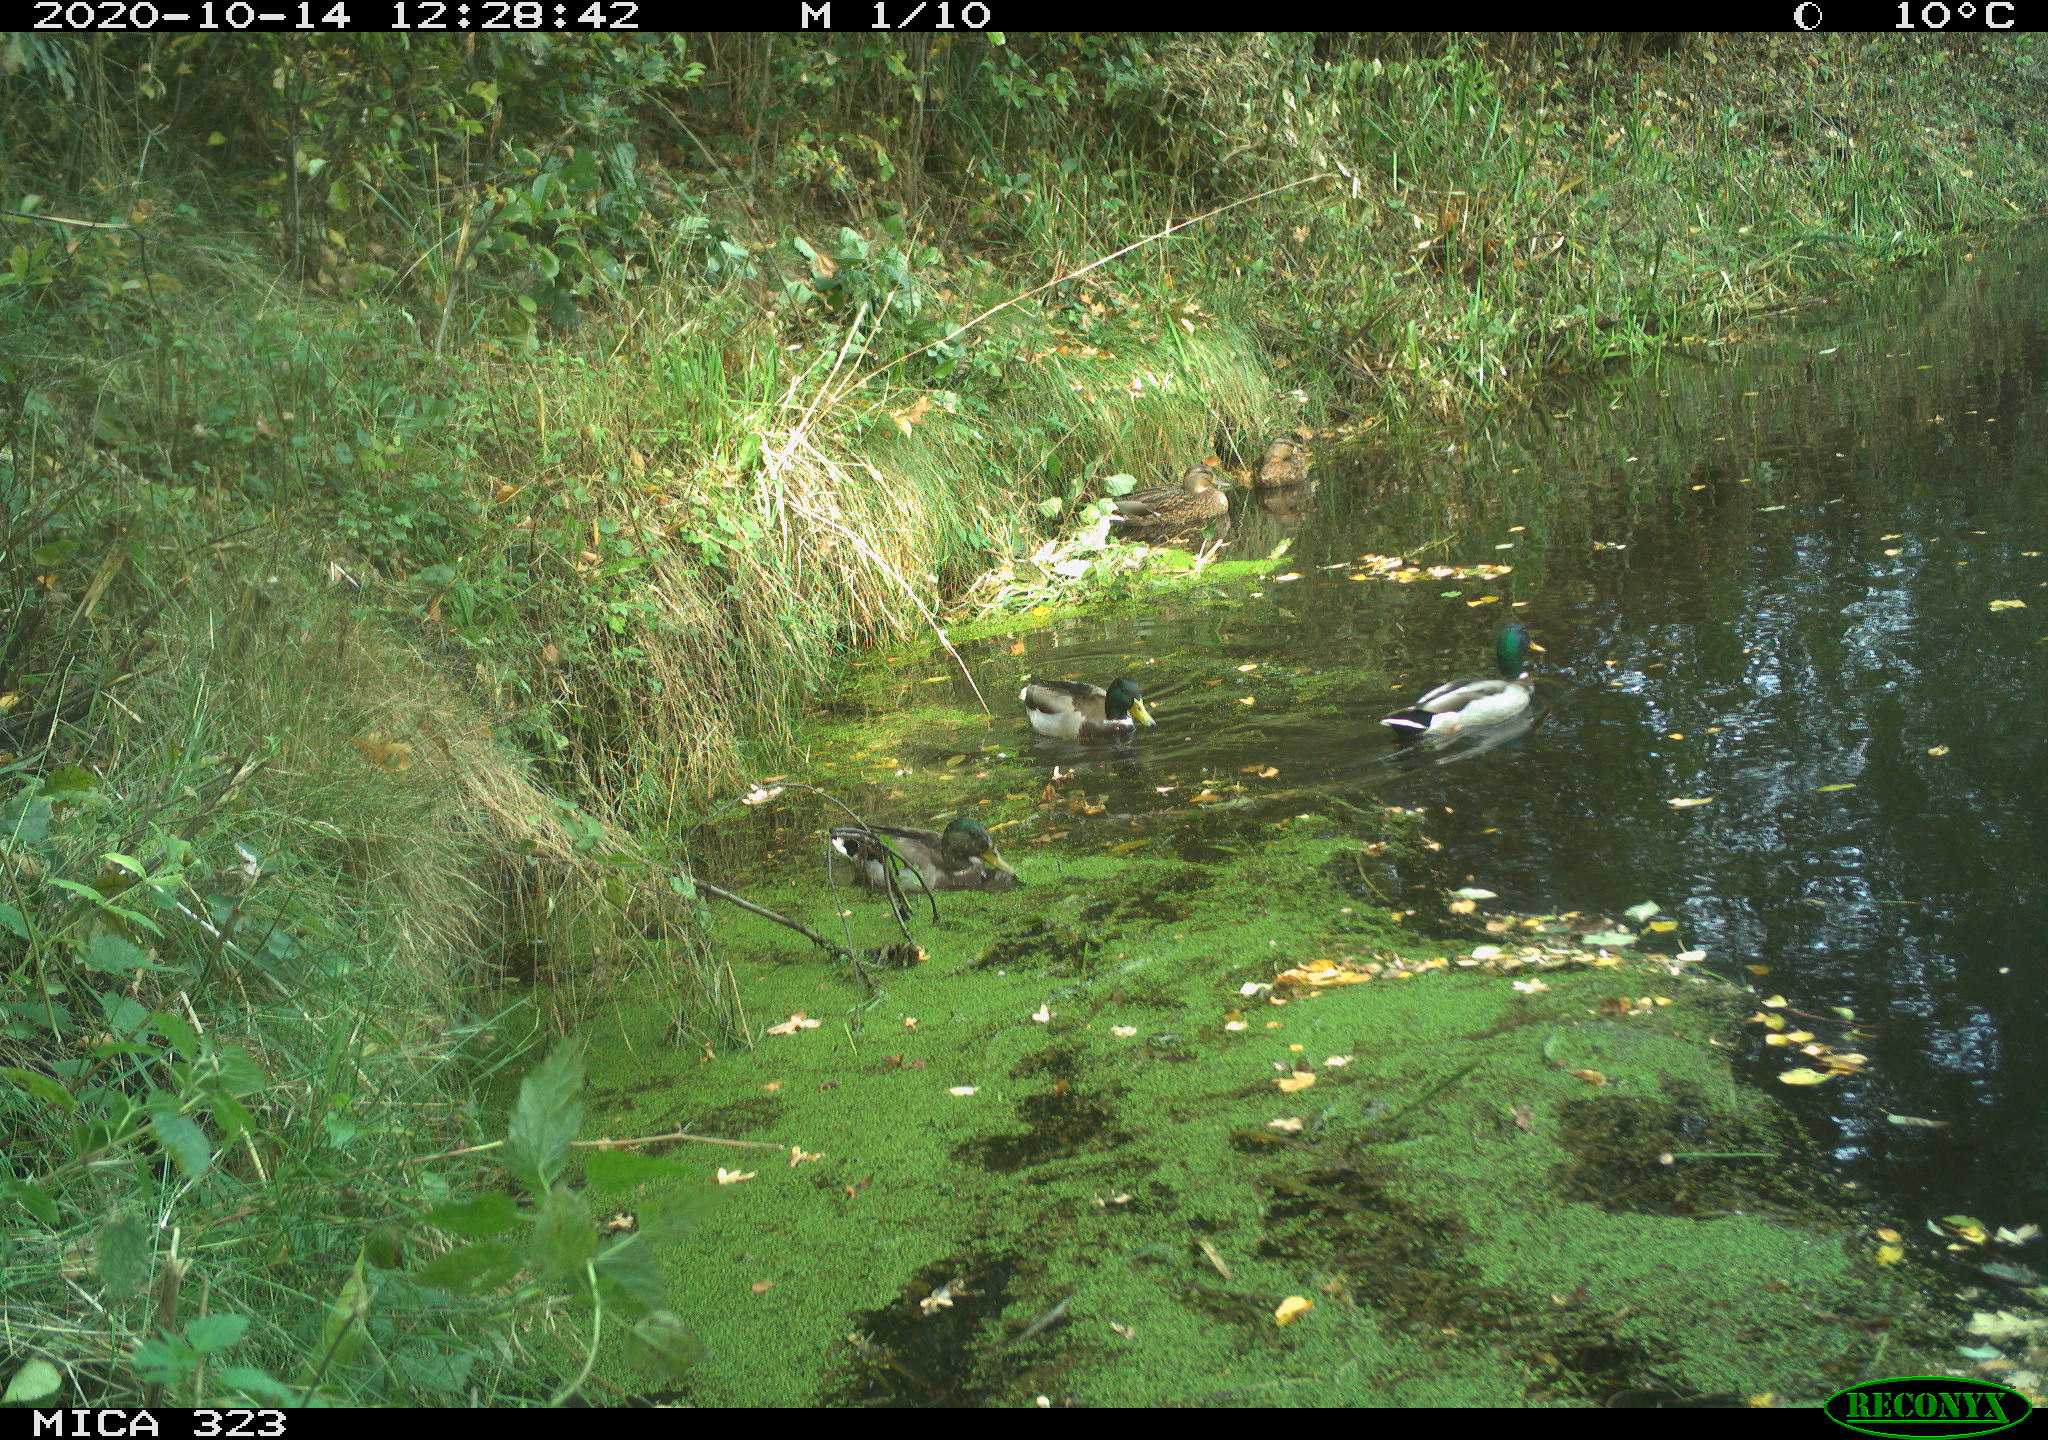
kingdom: Animalia
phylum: Chordata
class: Aves
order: Anseriformes
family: Anatidae
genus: Anas
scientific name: Anas platyrhynchos
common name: Mallard
